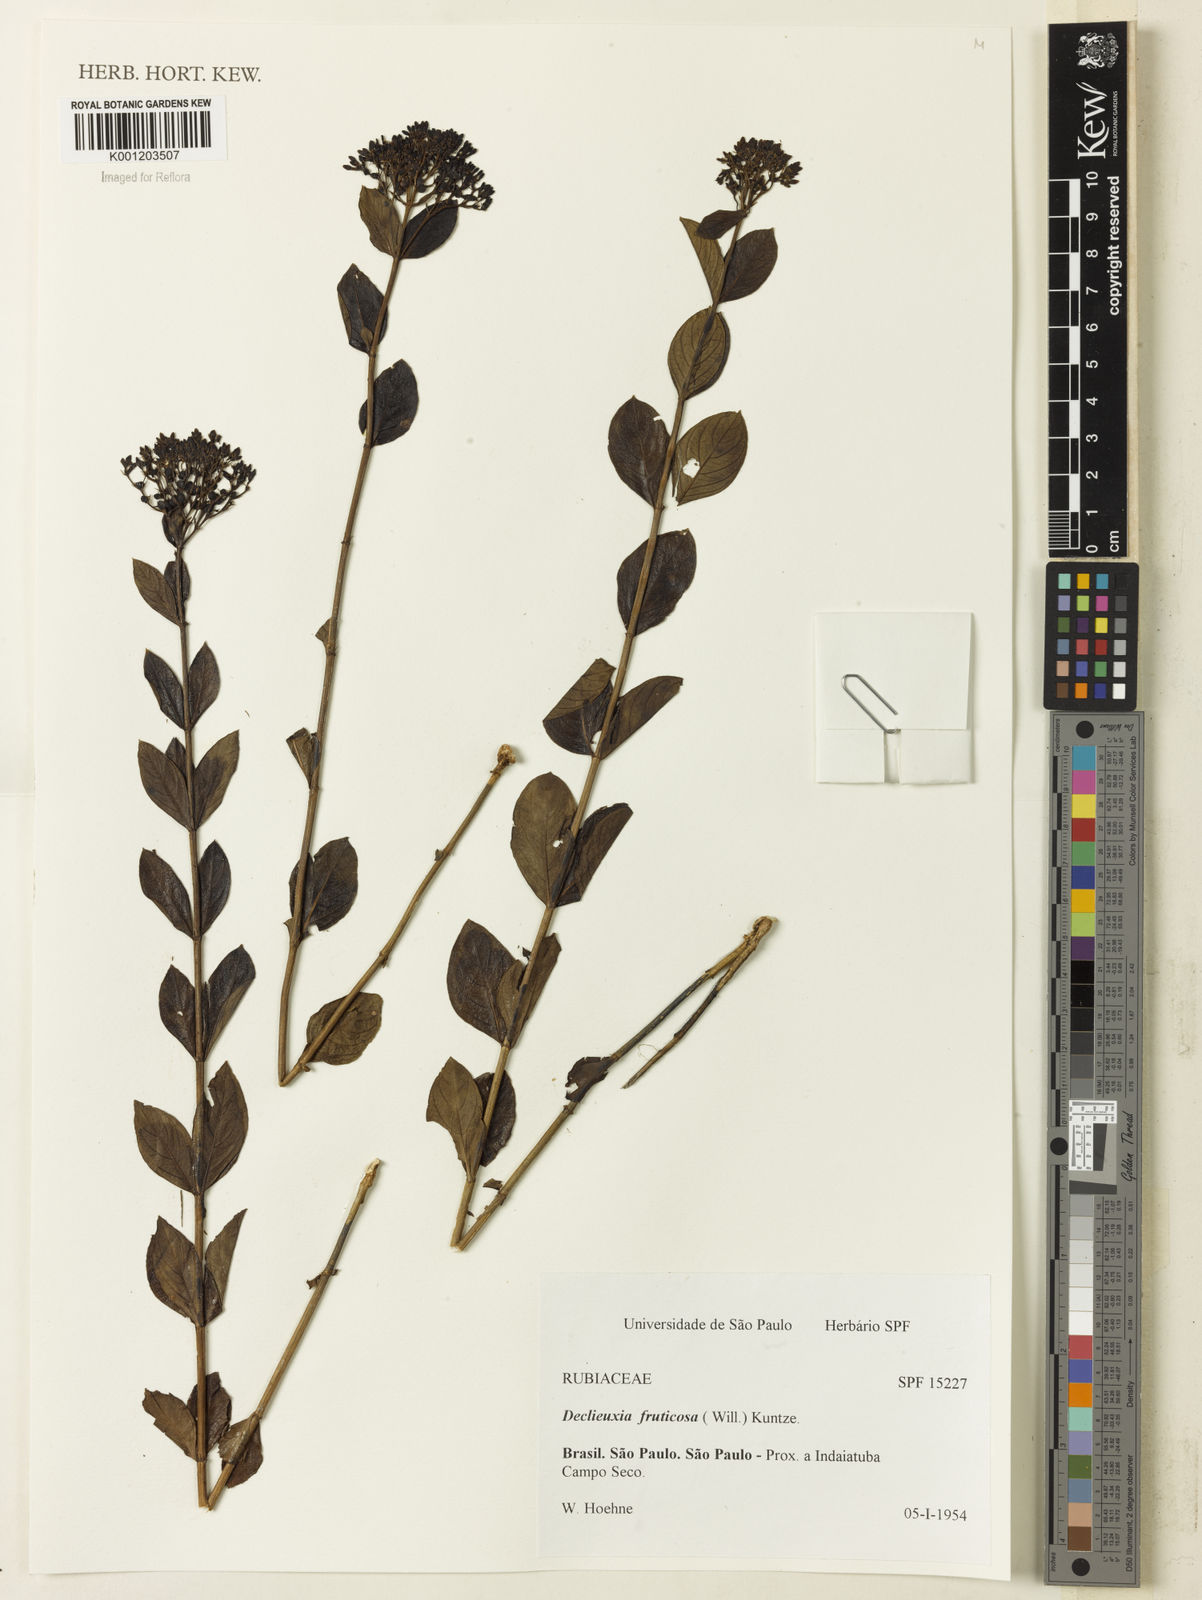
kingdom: Plantae
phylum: Tracheophyta
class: Magnoliopsida
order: Gentianales
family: Rubiaceae
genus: Declieuxia
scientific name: Declieuxia fruticosa
